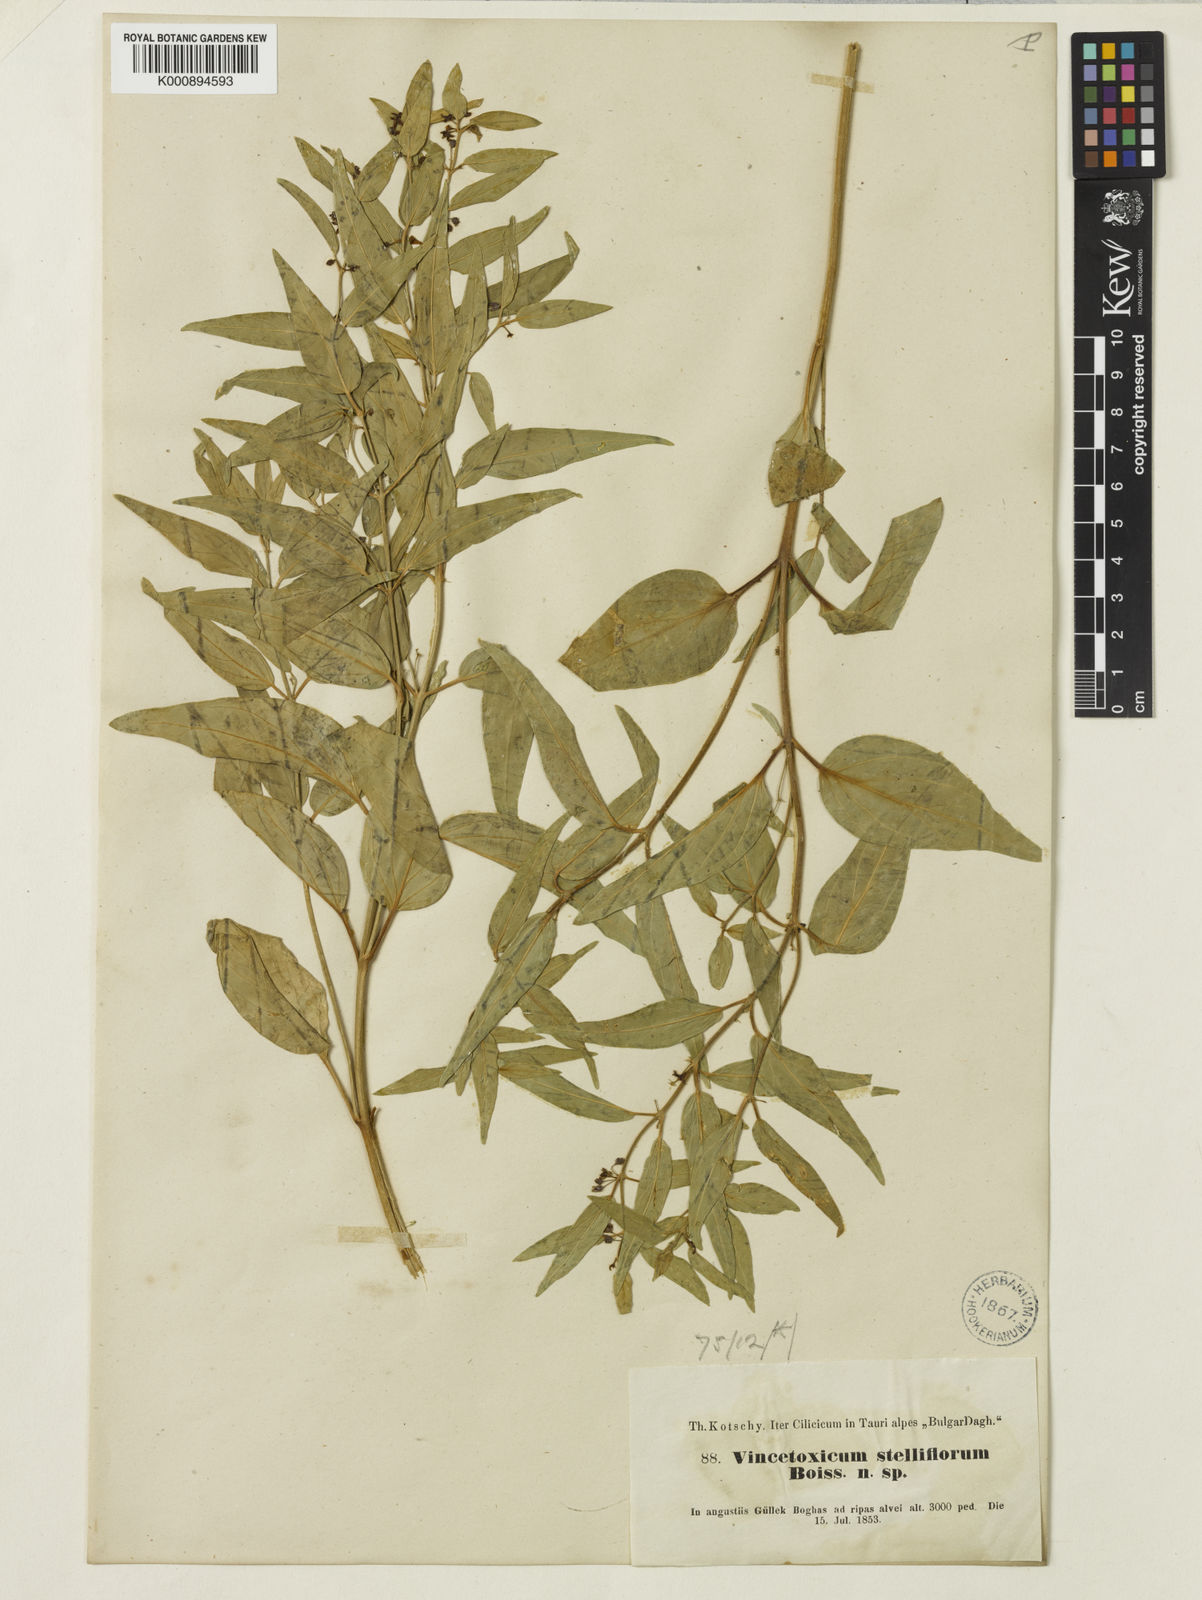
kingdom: Plantae
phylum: Tracheophyta
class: Magnoliopsida
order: Gentianales
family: Apocynaceae
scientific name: Apocynaceae
